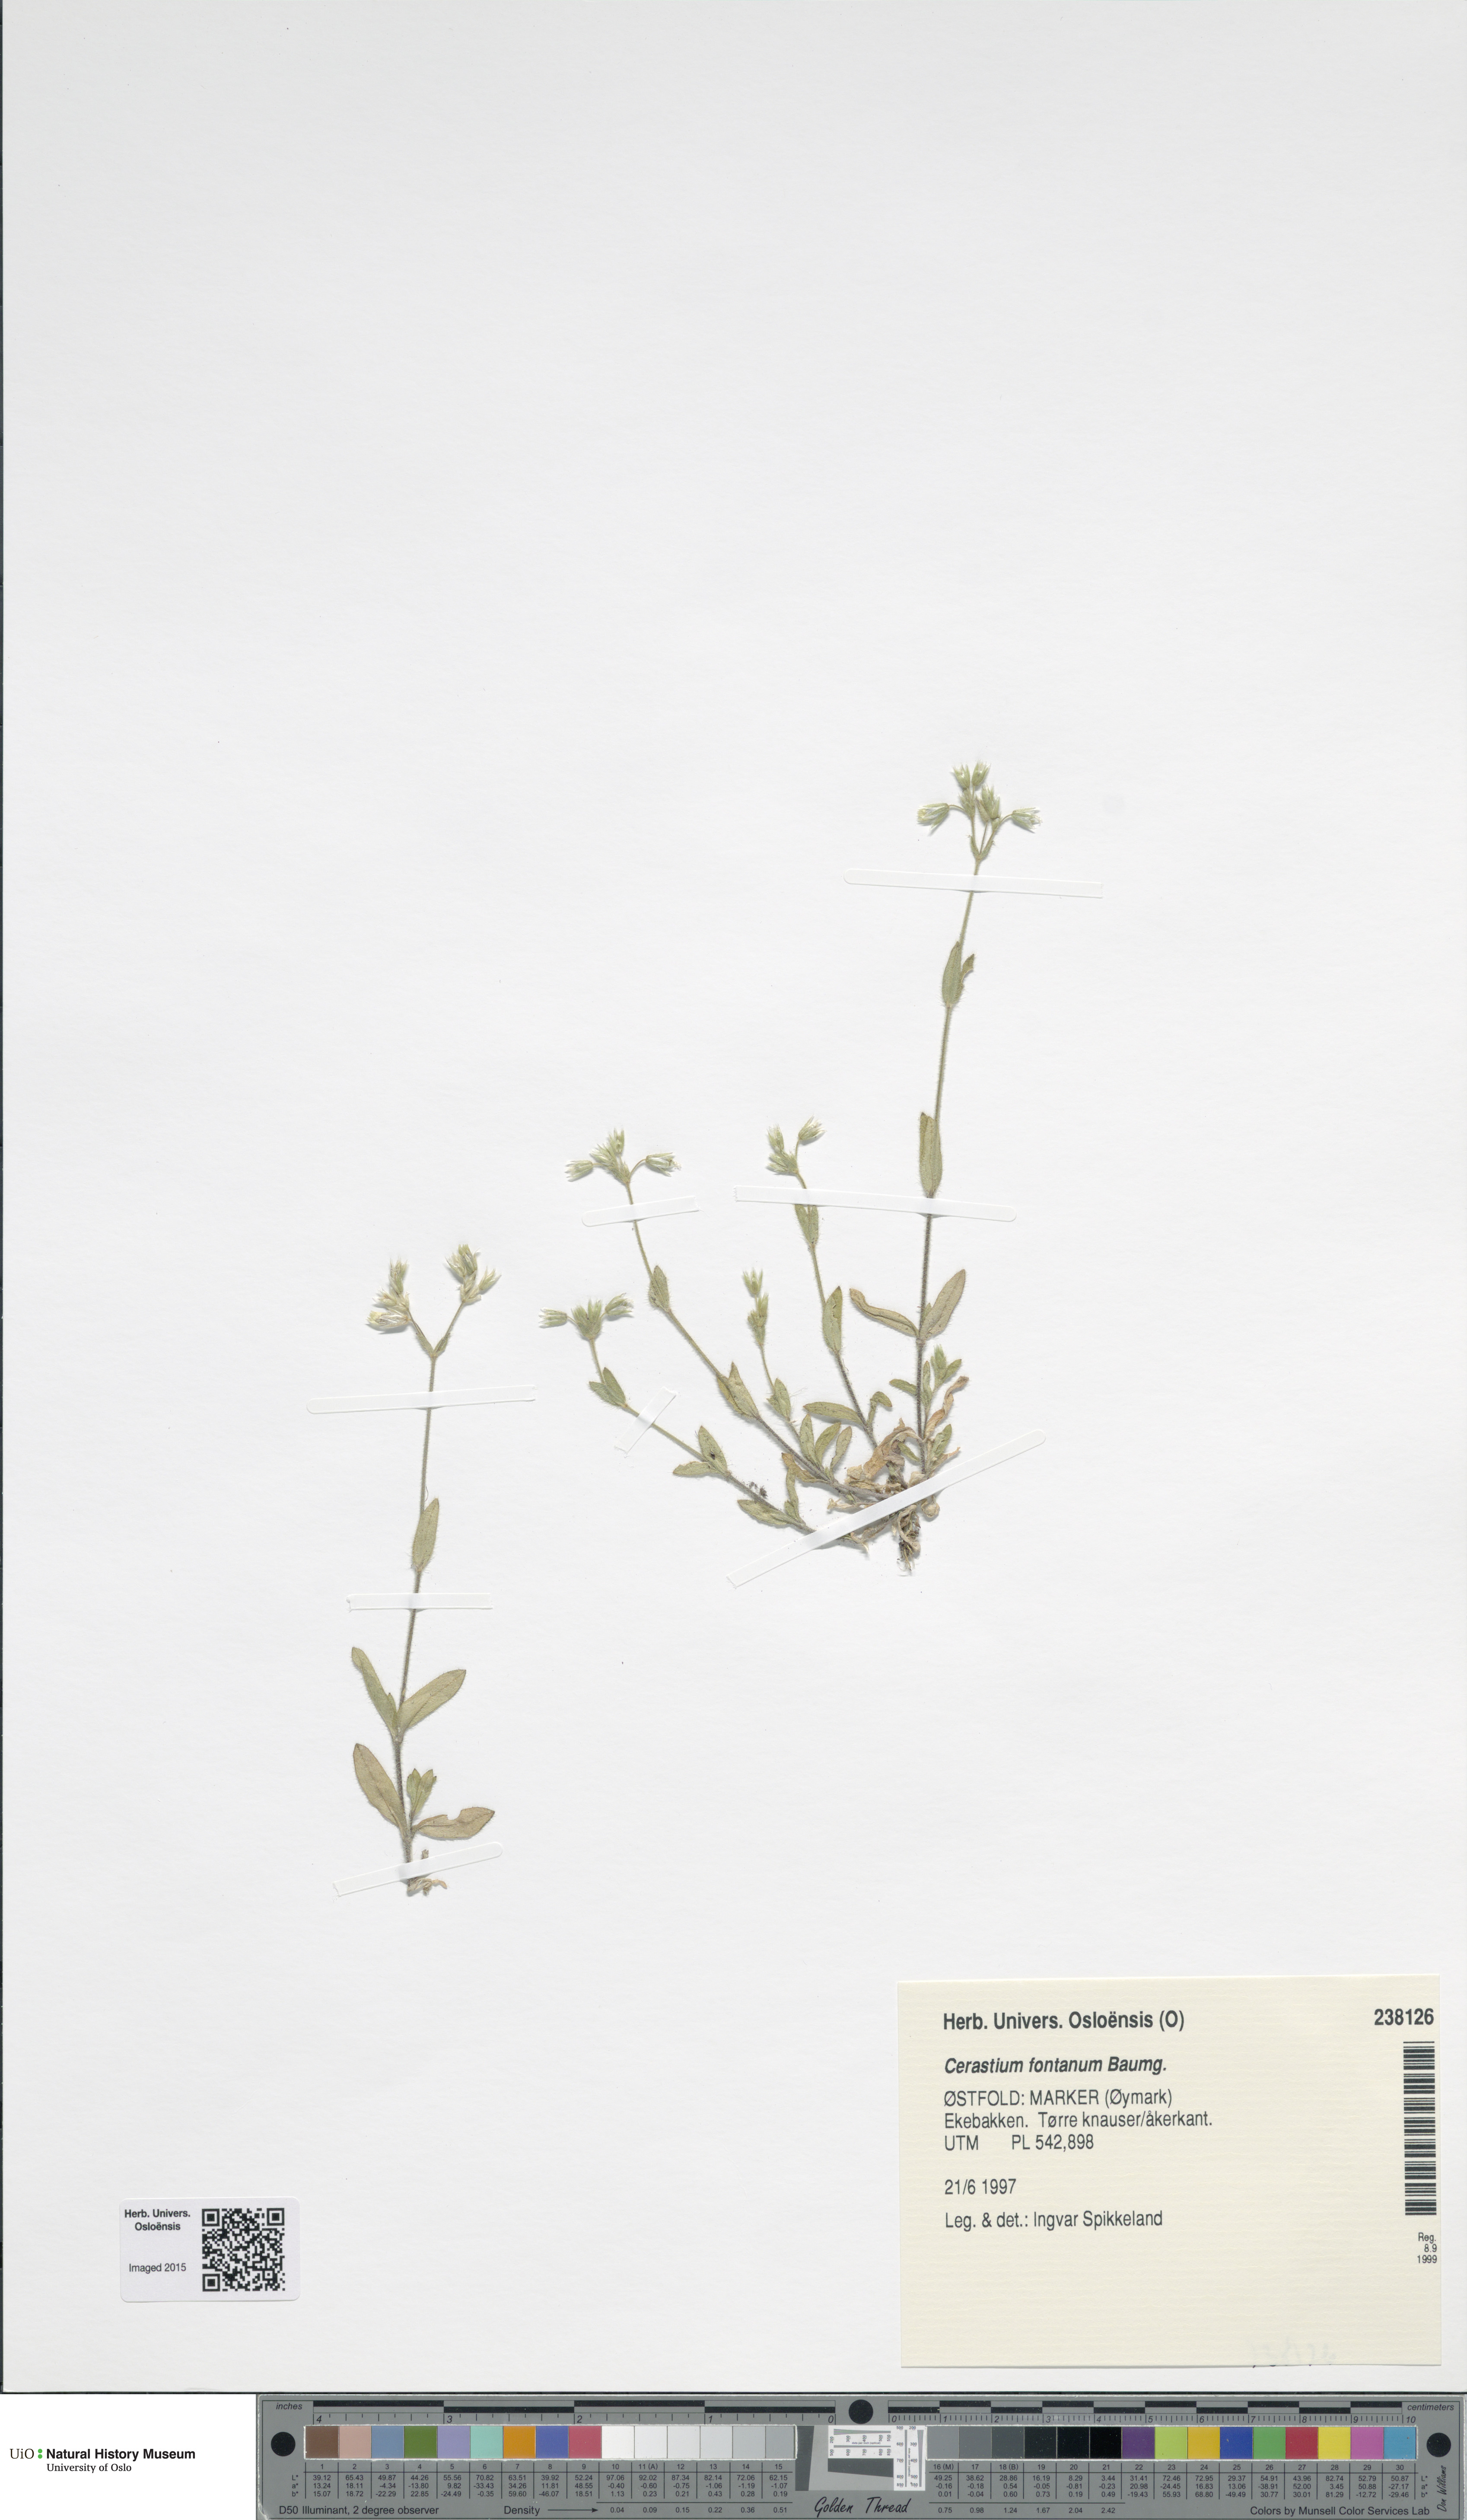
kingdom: Plantae
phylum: Tracheophyta
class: Magnoliopsida
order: Caryophyllales
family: Caryophyllaceae
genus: Cerastium
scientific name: Cerastium fontanum
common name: Common mouse-ear
